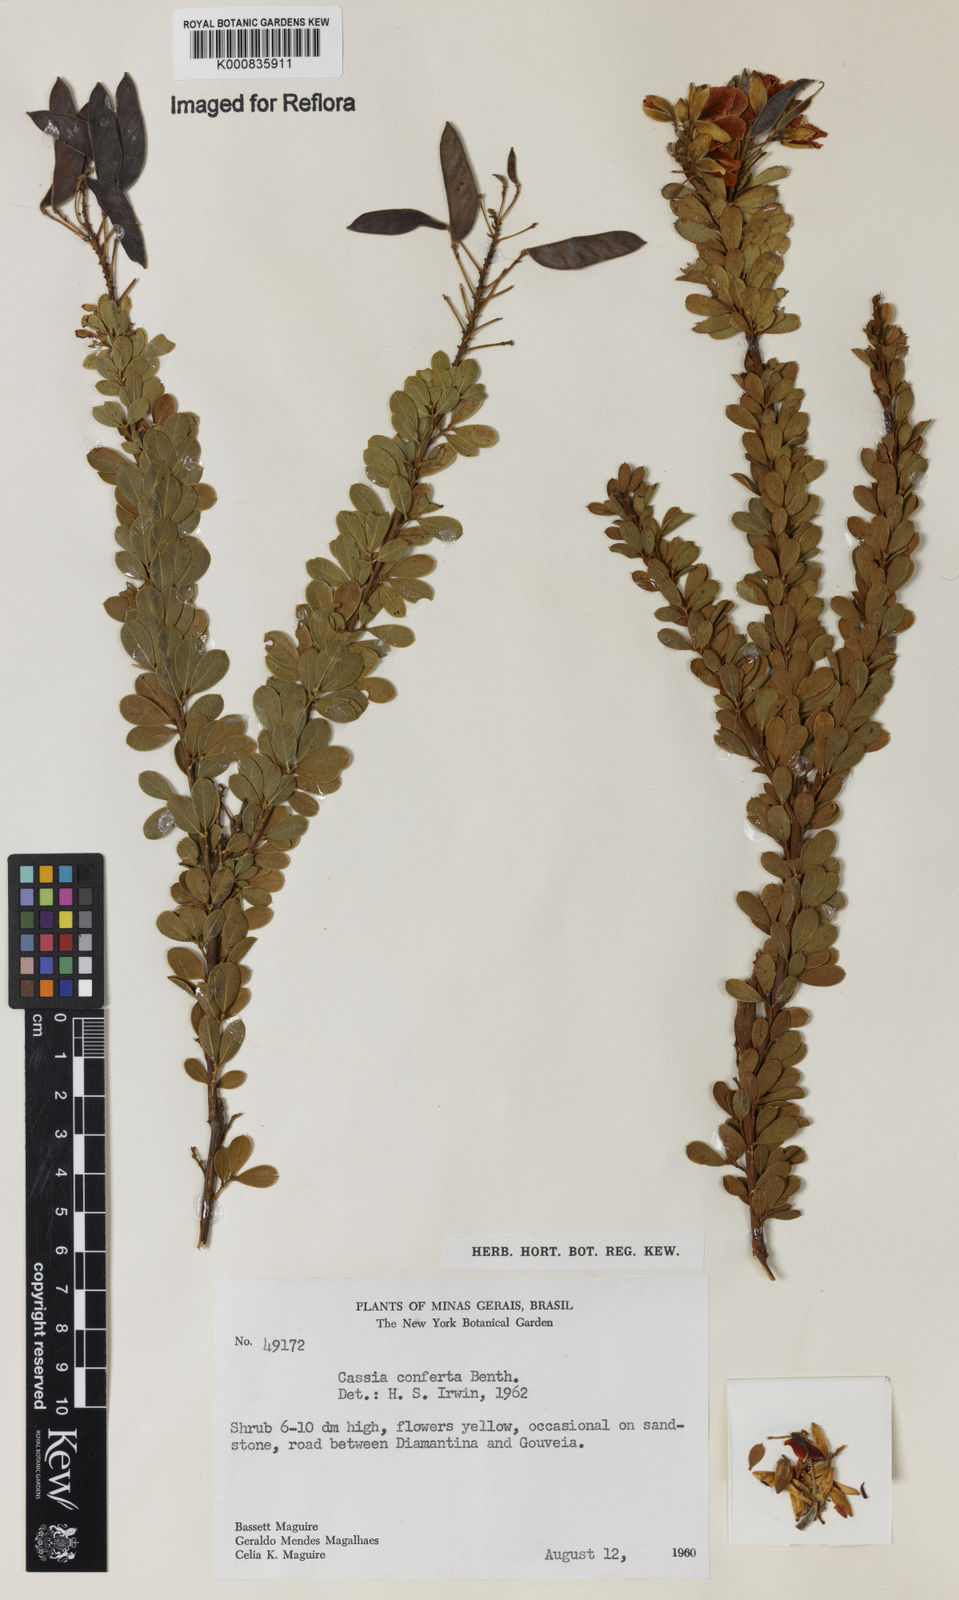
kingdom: Plantae
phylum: Tracheophyta
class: Magnoliopsida
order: Fabales
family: Fabaceae
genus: Chamaecrista
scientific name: Chamaecrista conferta
